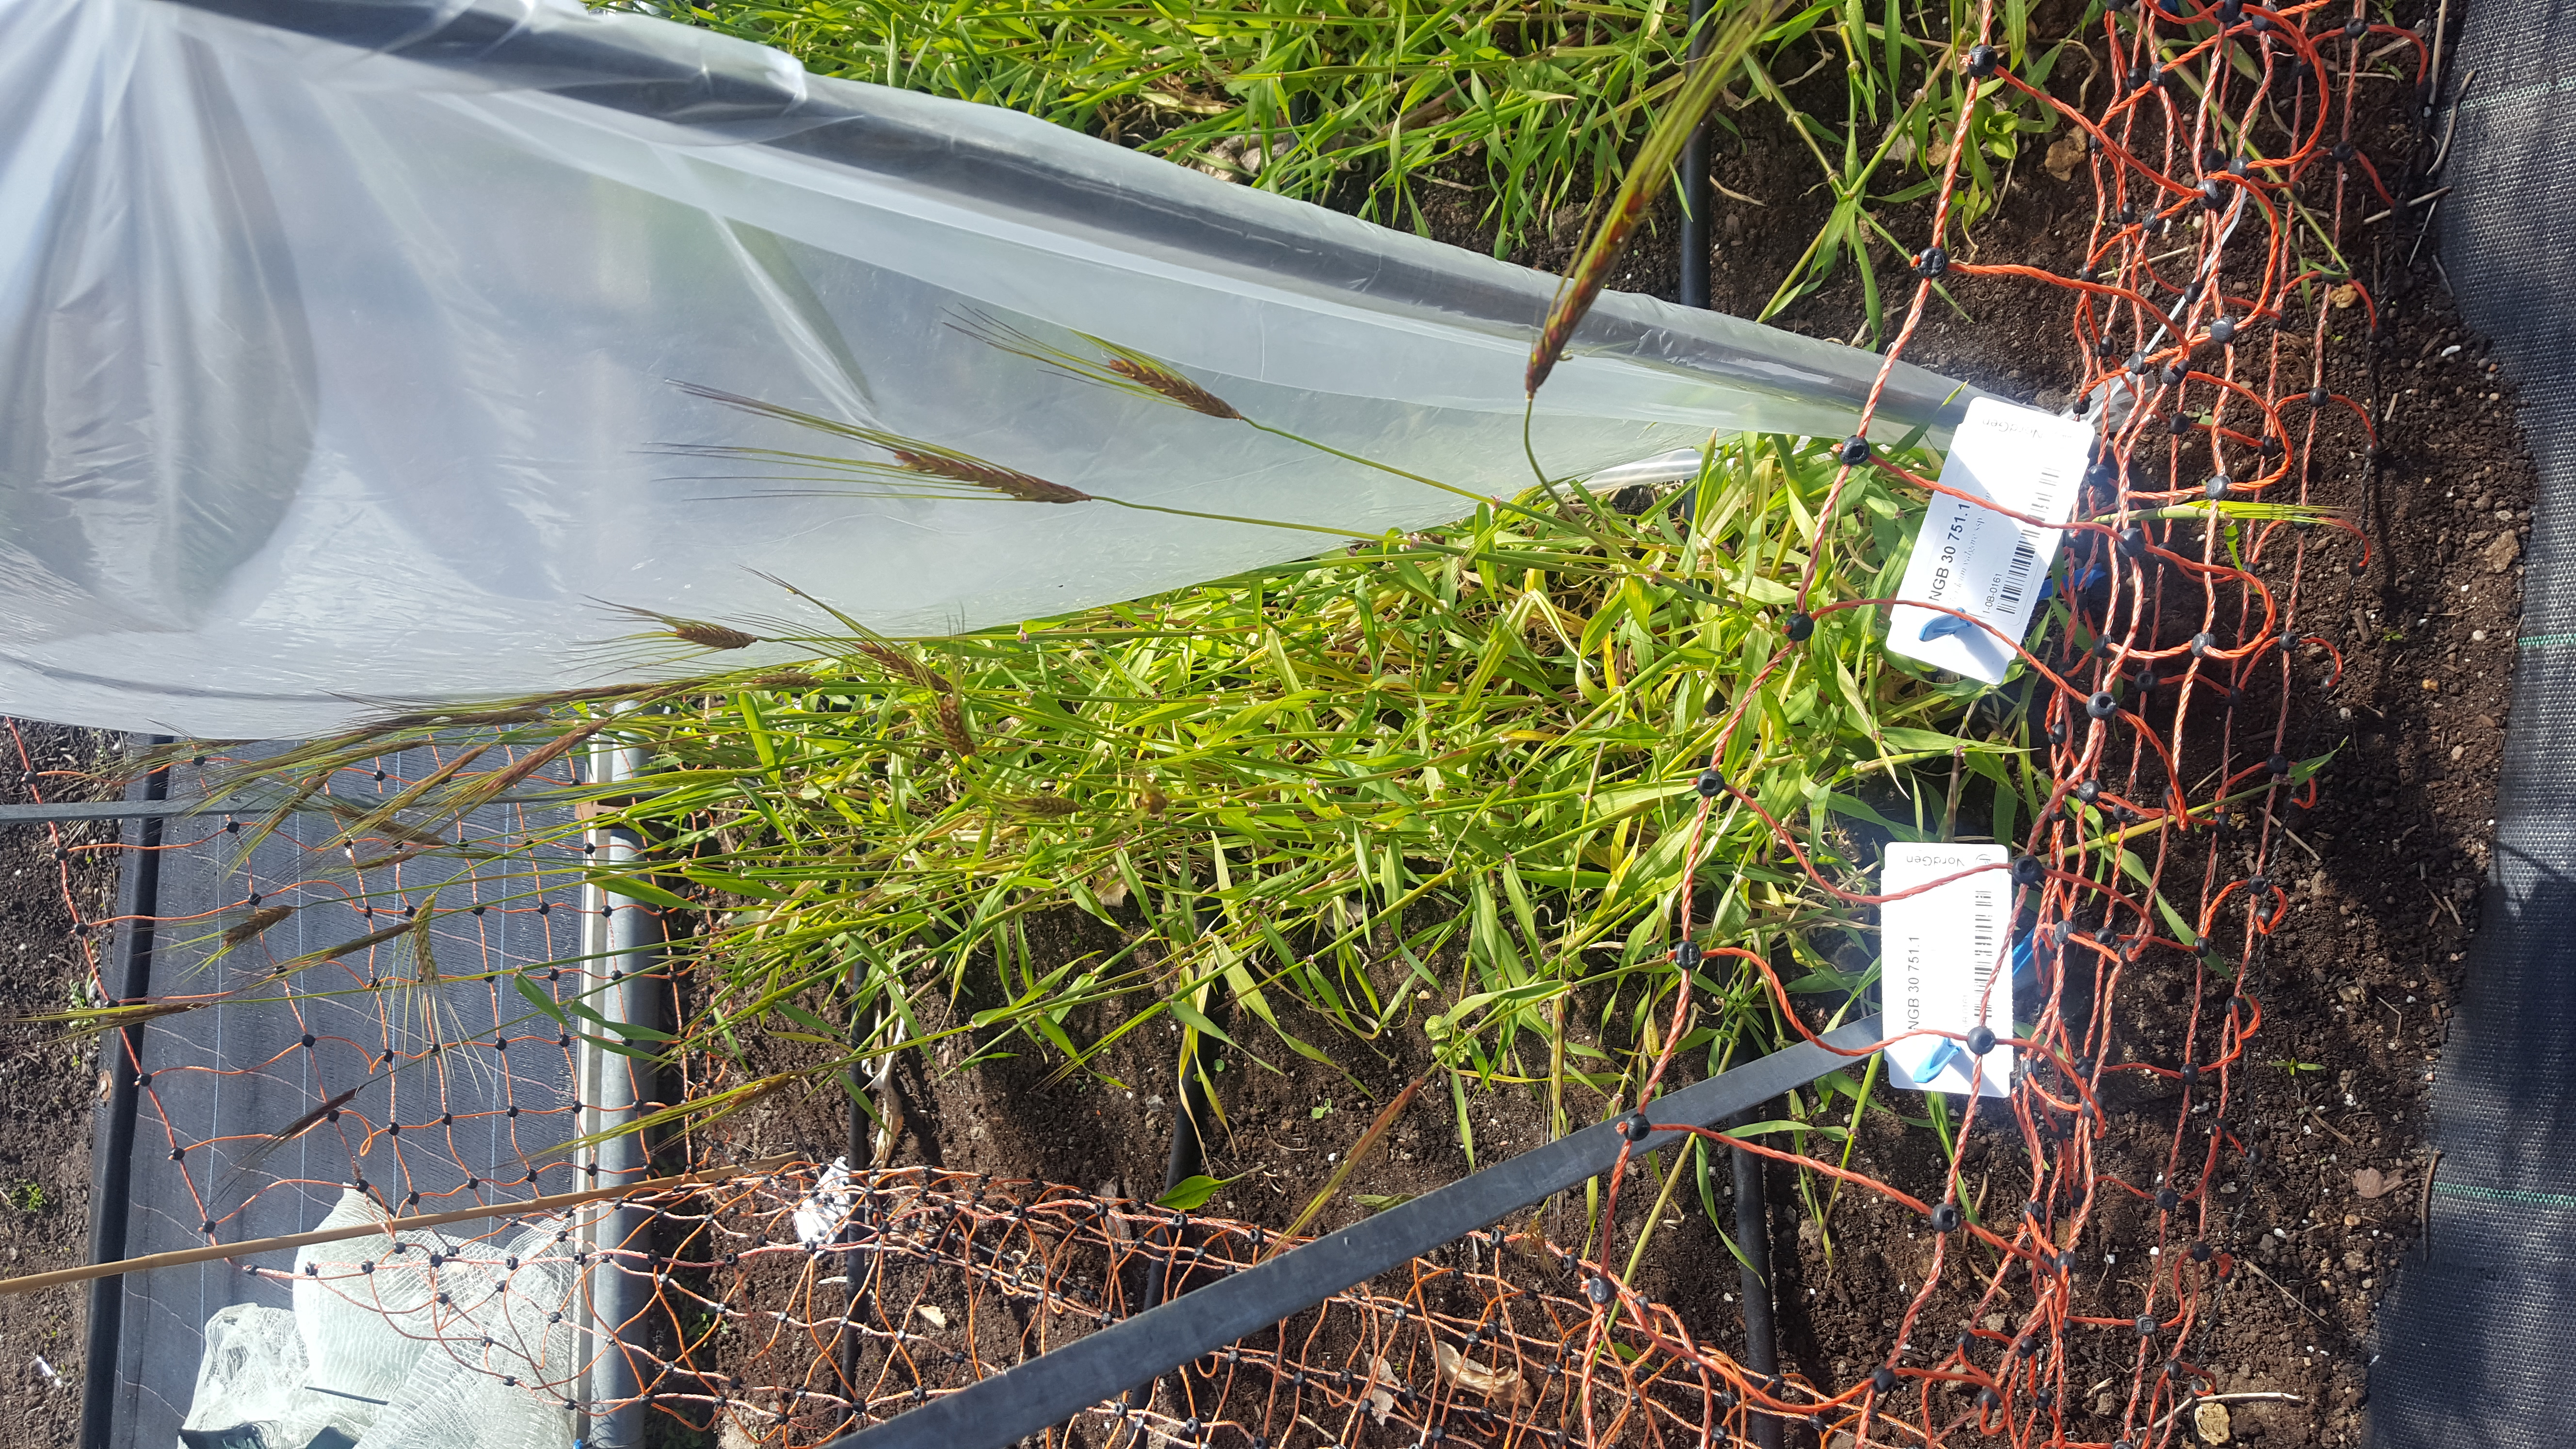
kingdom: Plantae
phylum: Tracheophyta
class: Liliopsida
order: Poales
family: Poaceae
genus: Hordeum
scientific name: Hordeum spontaneum
